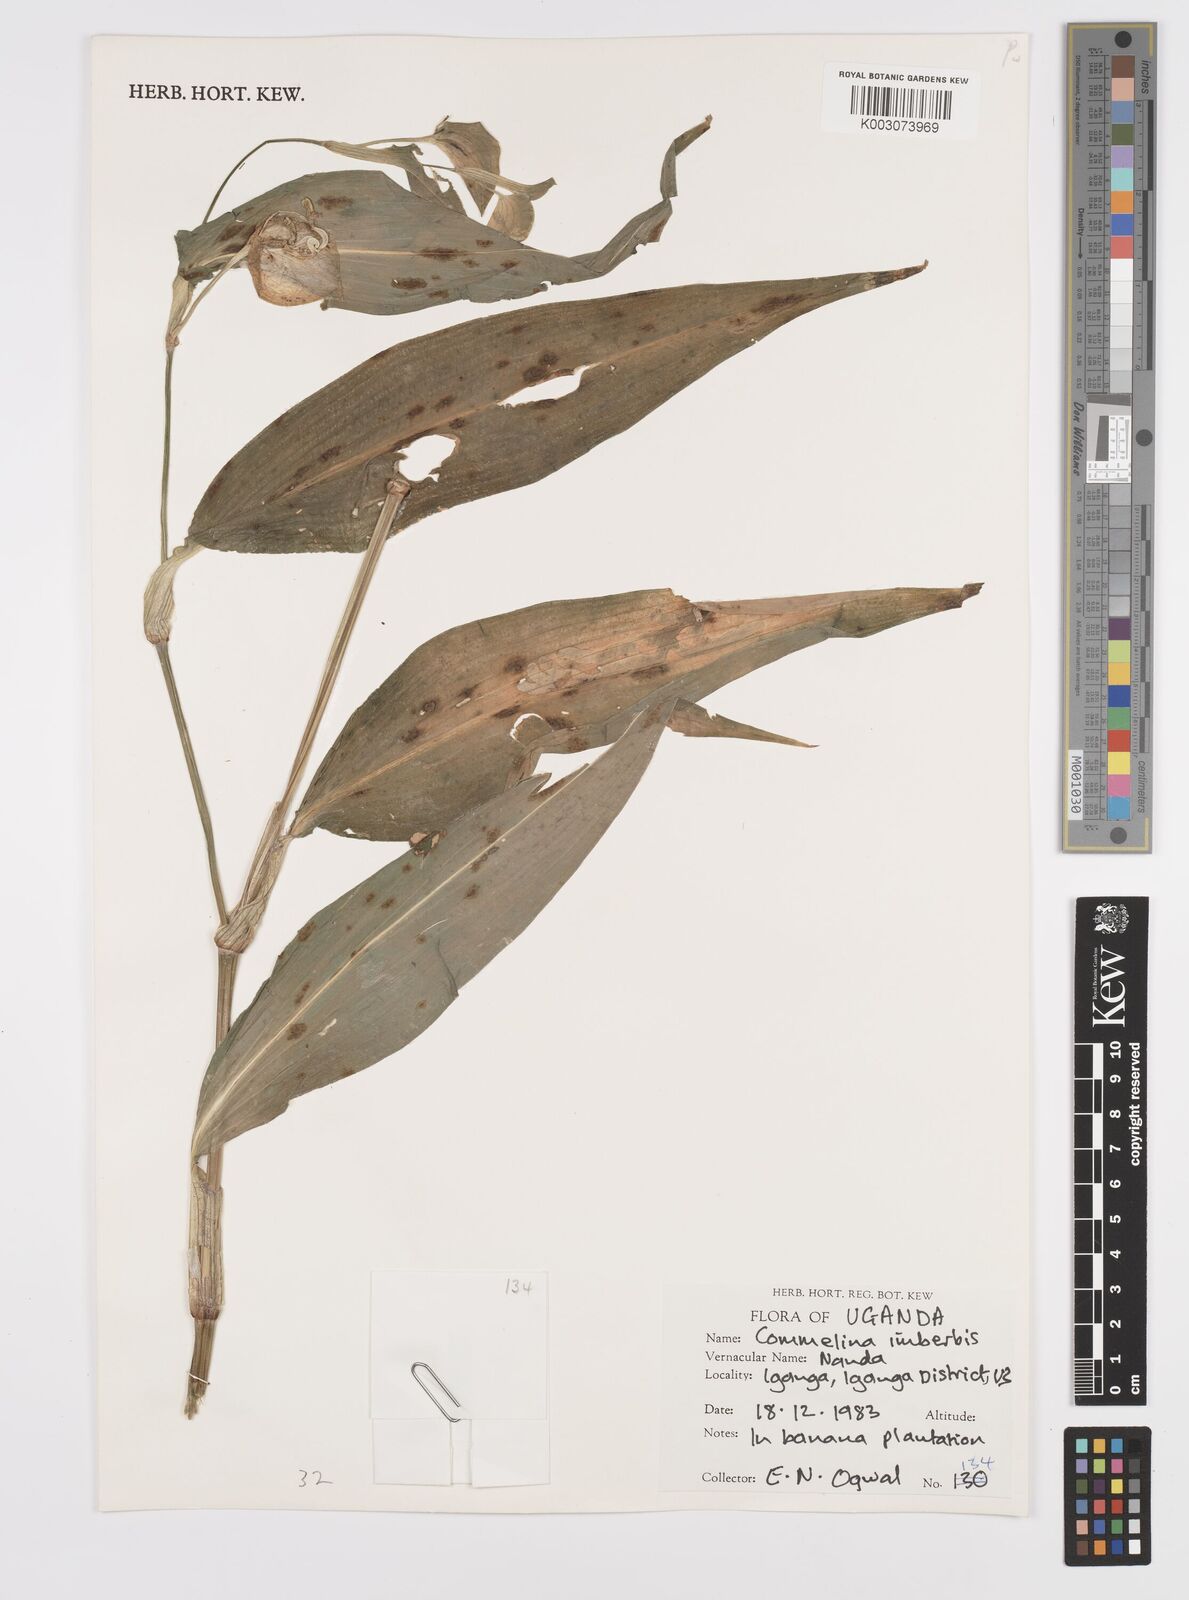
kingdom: Plantae
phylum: Tracheophyta
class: Liliopsida
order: Commelinales
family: Commelinaceae
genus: Commelina
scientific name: Commelina imberbis
